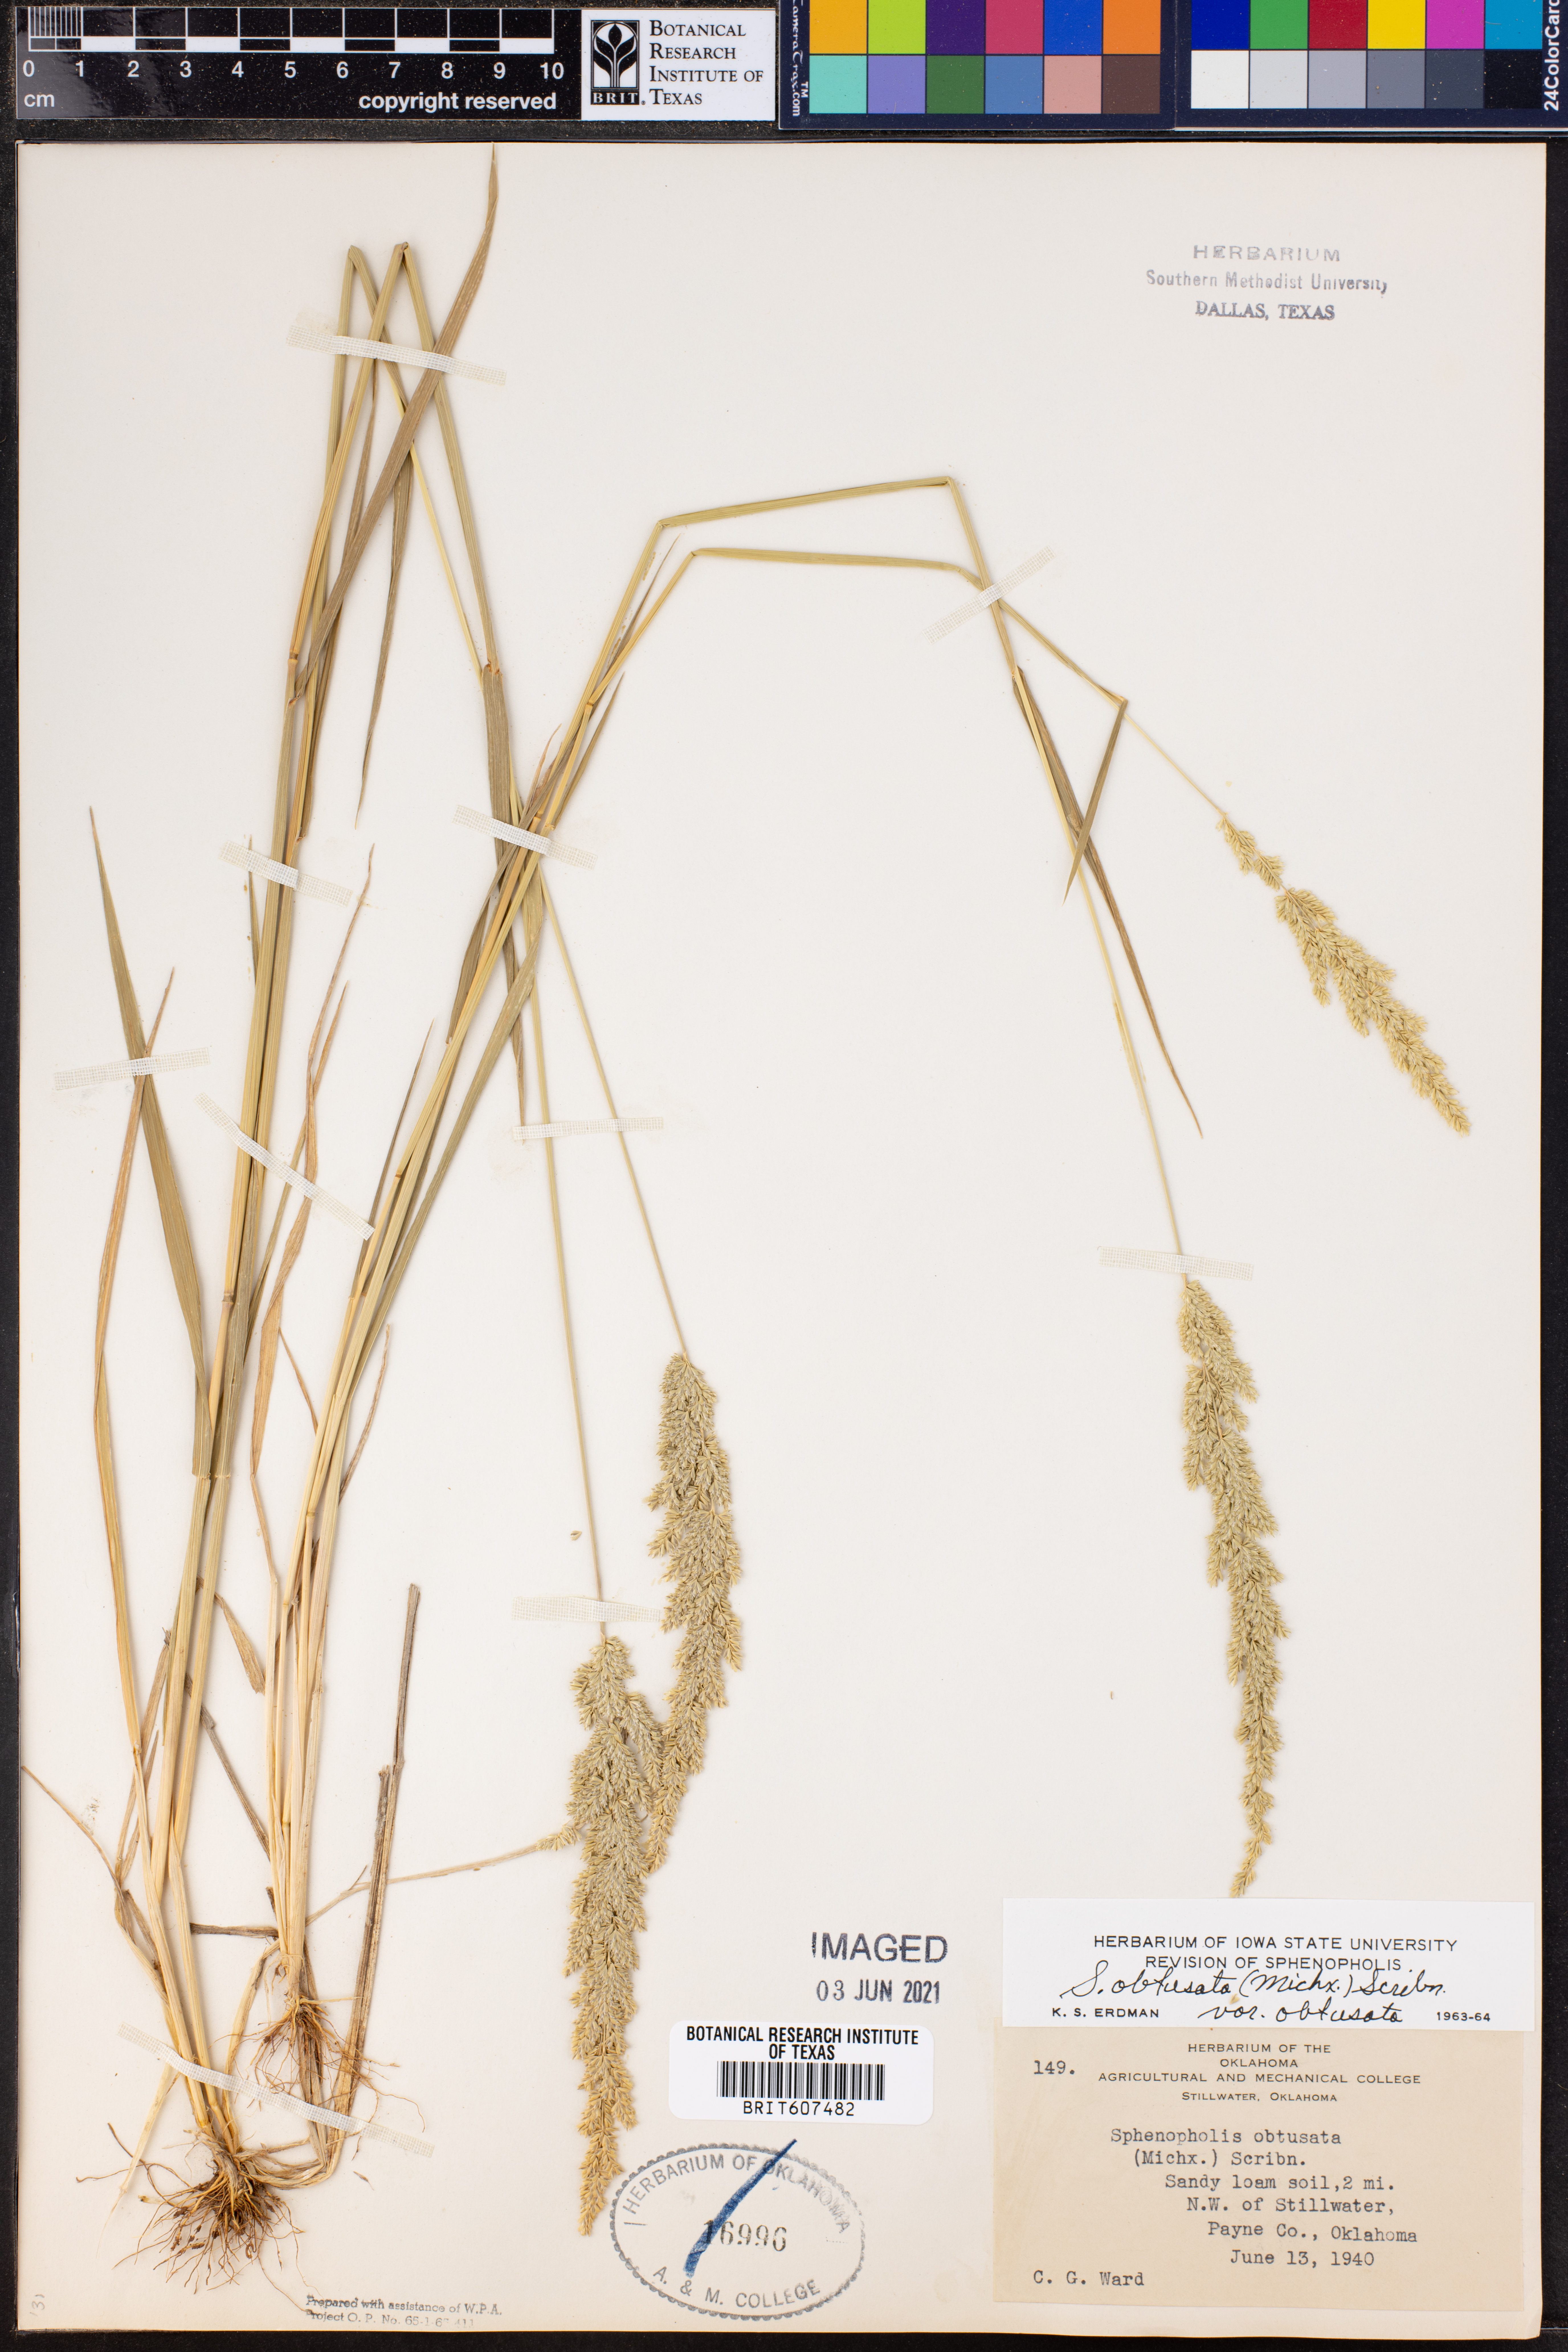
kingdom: Plantae
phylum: Tracheophyta
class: Liliopsida
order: Poales
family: Poaceae
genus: Sphenopholis
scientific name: Sphenopholis obtusata
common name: Prairie grass
